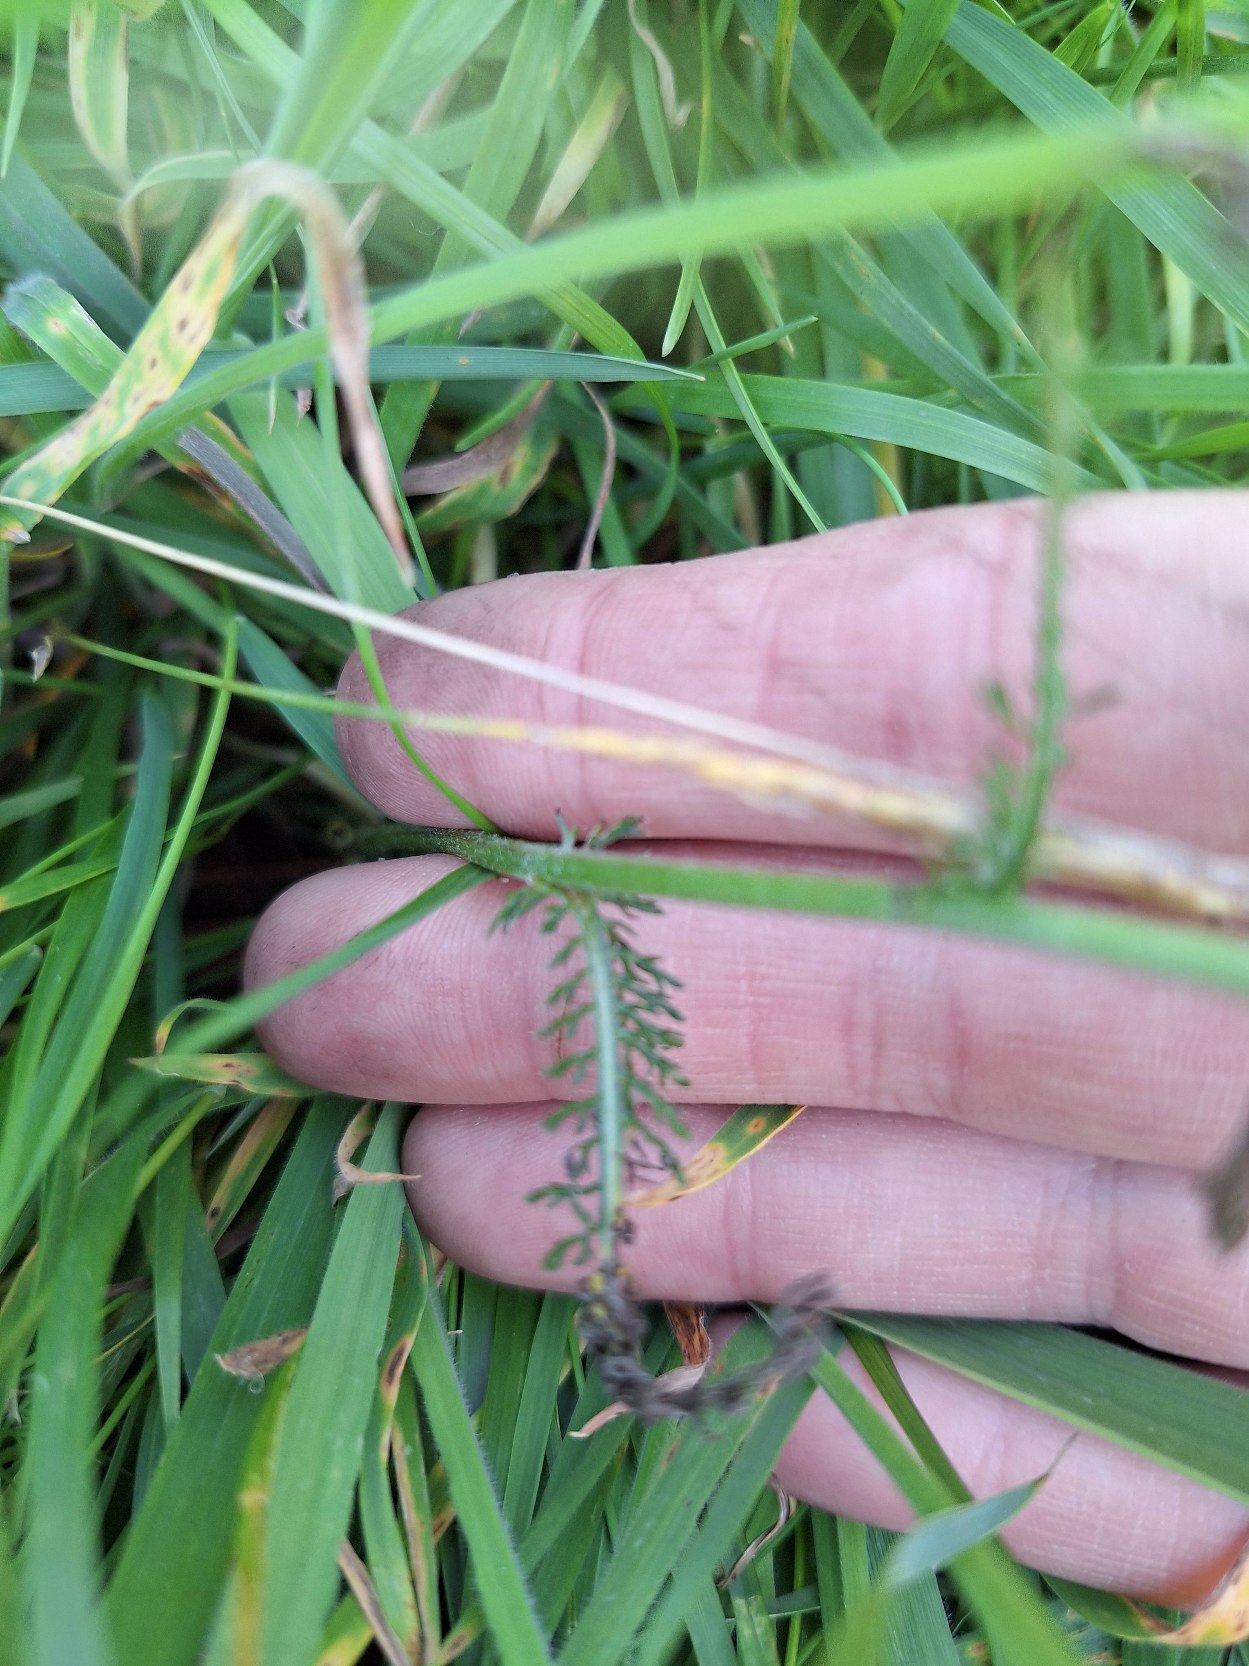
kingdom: Plantae
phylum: Tracheophyta
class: Magnoliopsida
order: Asterales
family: Asteraceae
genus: Achillea
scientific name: Achillea millefolium
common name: Almindelig røllike
